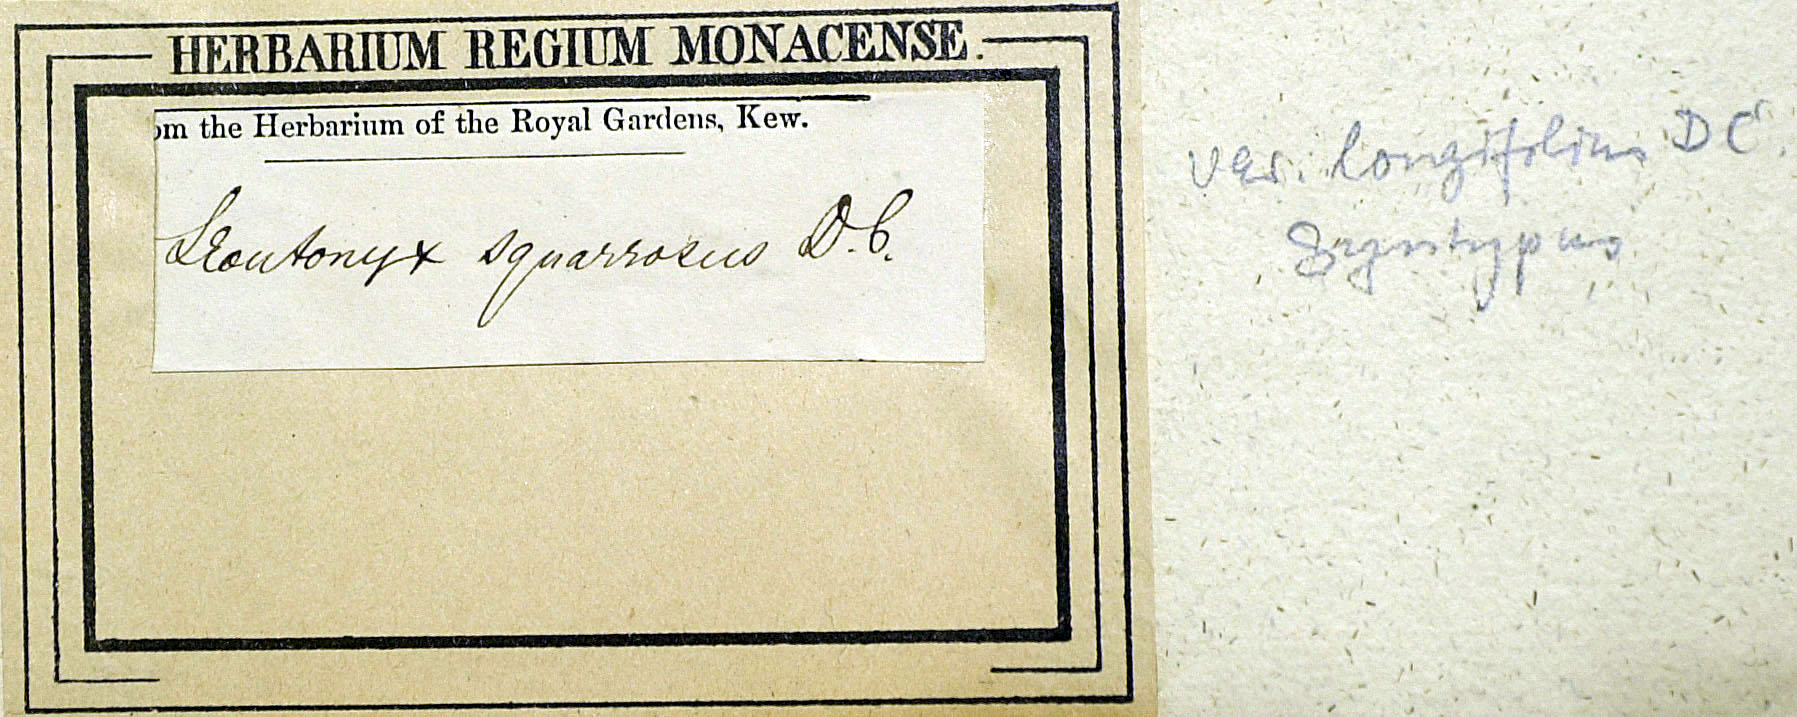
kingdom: Plantae
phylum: Tracheophyta
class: Magnoliopsida
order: Asterales
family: Asteraceae
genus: Helichrysum
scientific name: Helichrysum spiralepis
